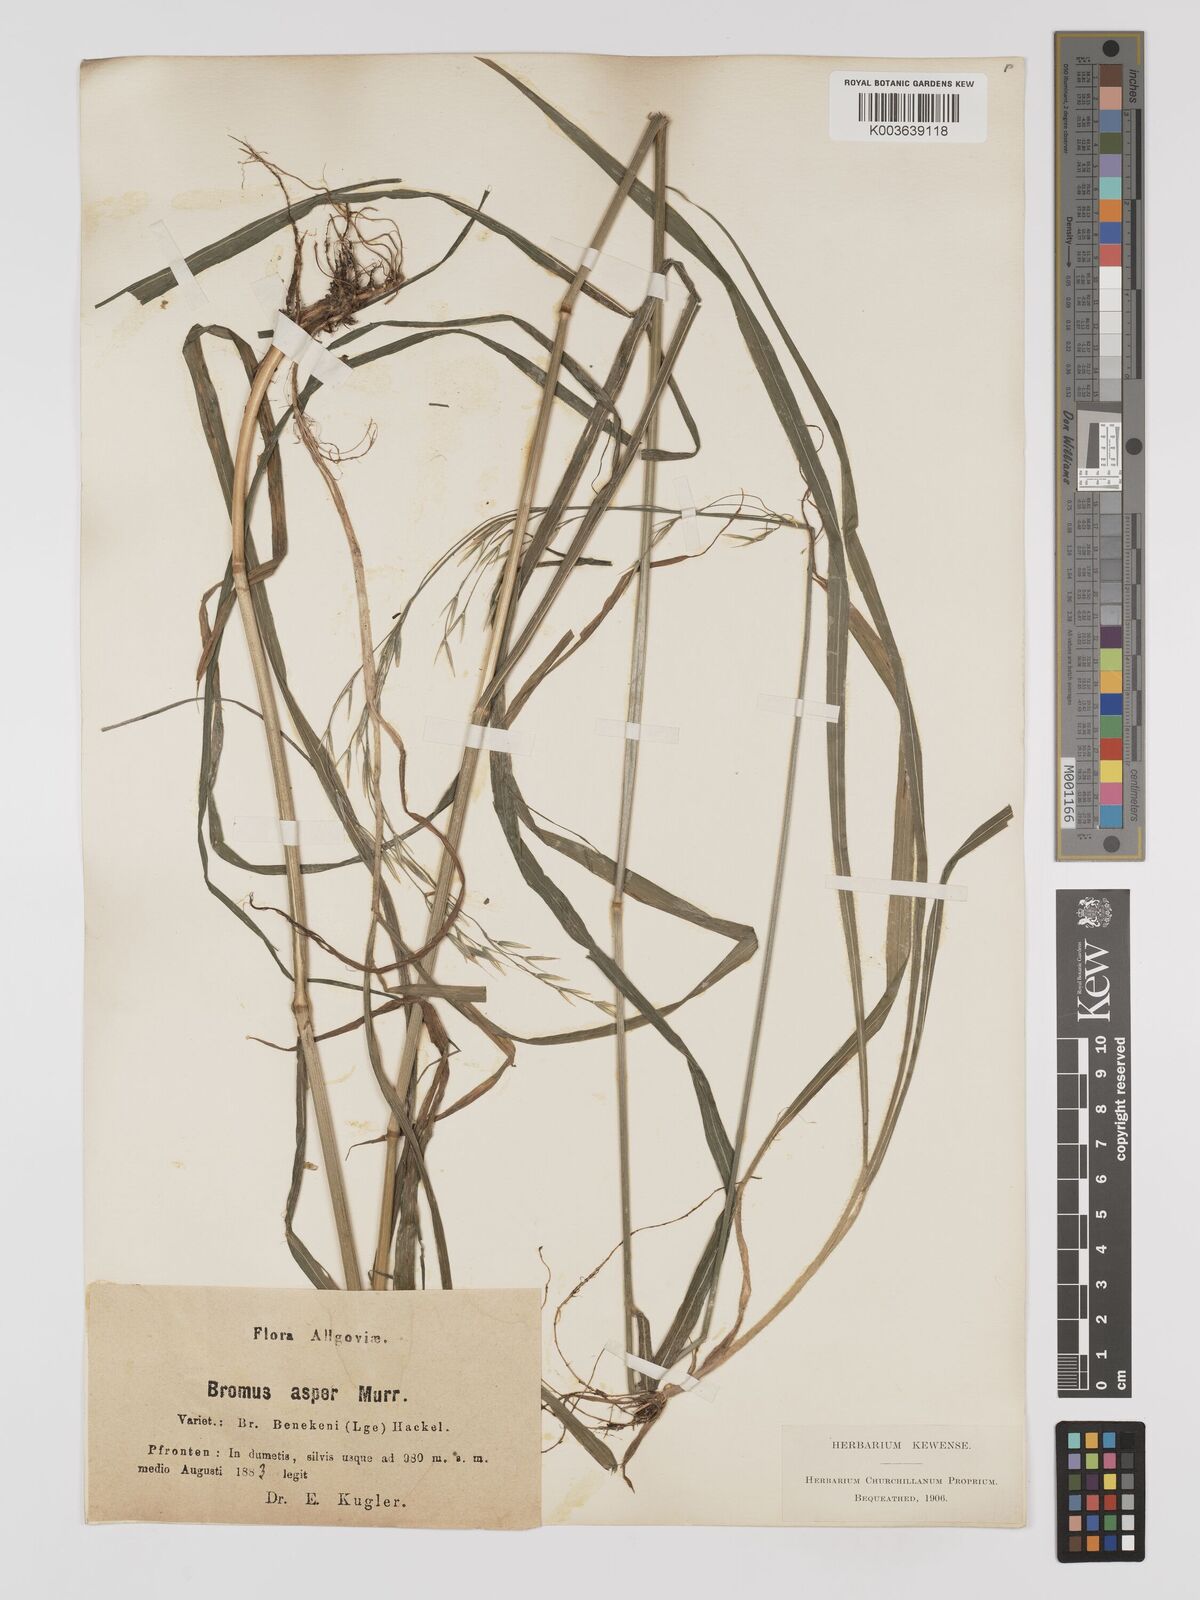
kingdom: Plantae
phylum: Tracheophyta
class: Liliopsida
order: Poales
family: Poaceae
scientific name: Poaceae
